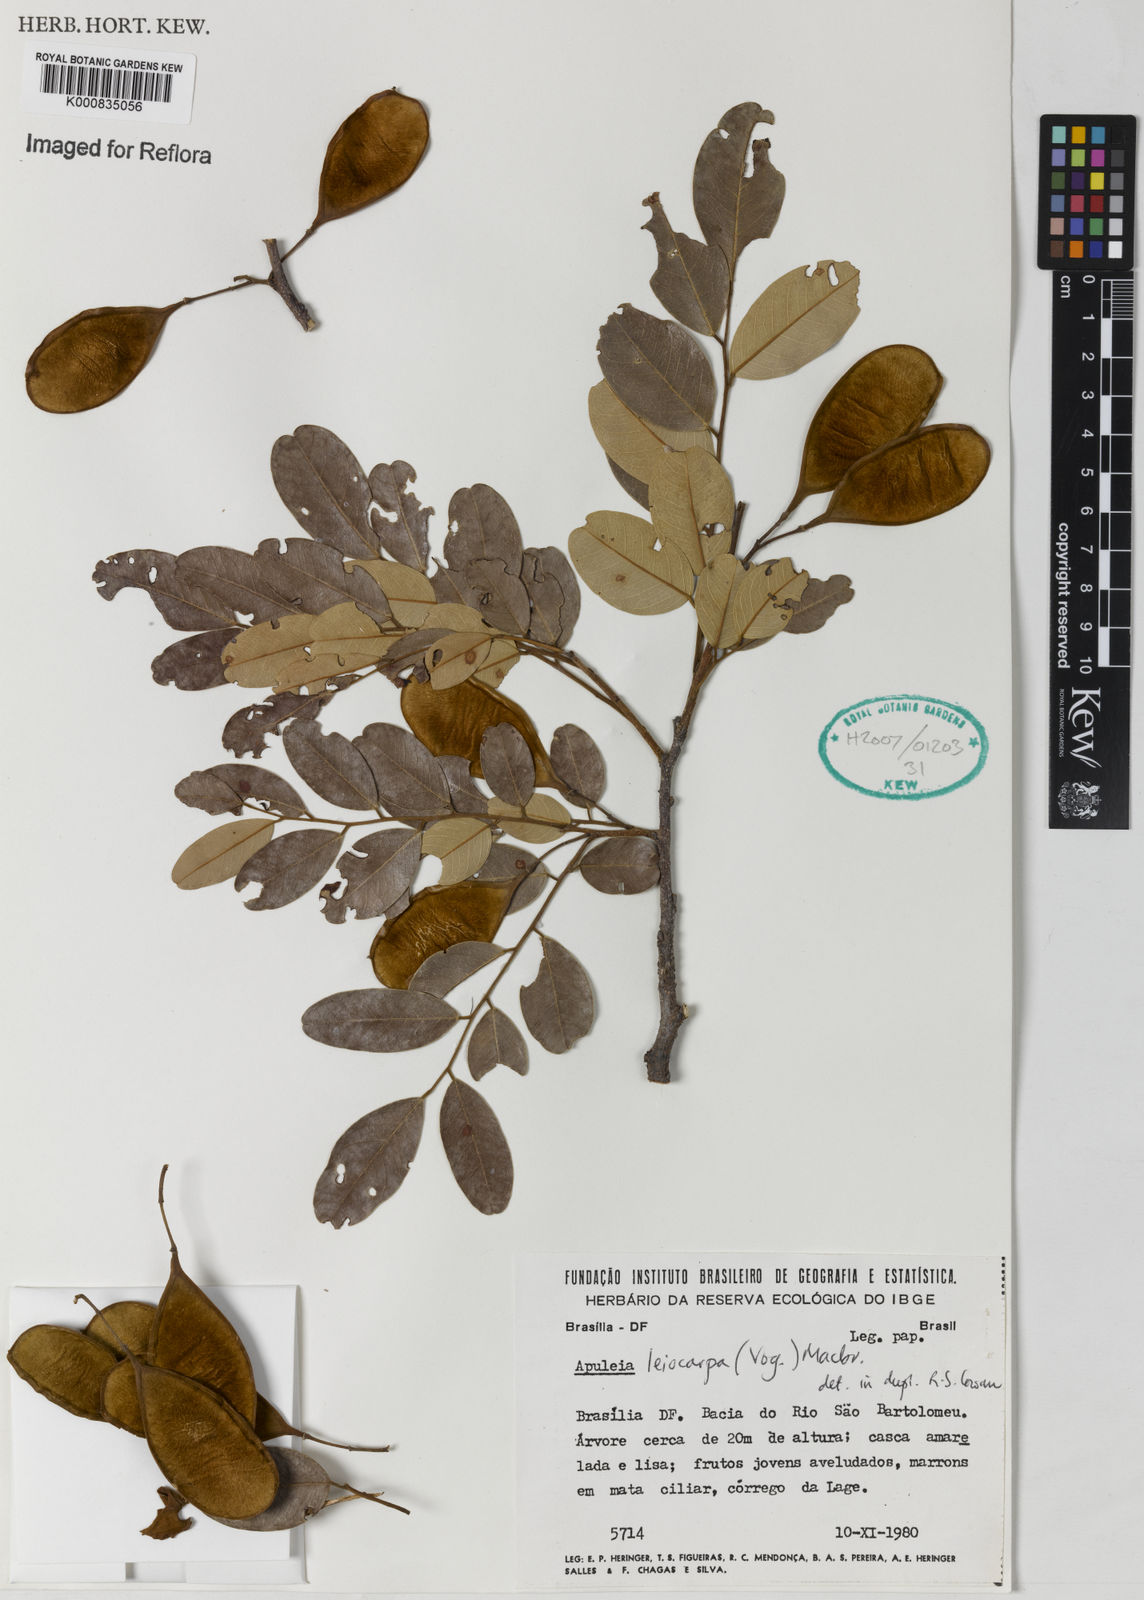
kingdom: Plantae
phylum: Tracheophyta
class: Magnoliopsida
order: Fabales
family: Fabaceae
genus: Apuleia
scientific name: Apuleia leiocarpa
